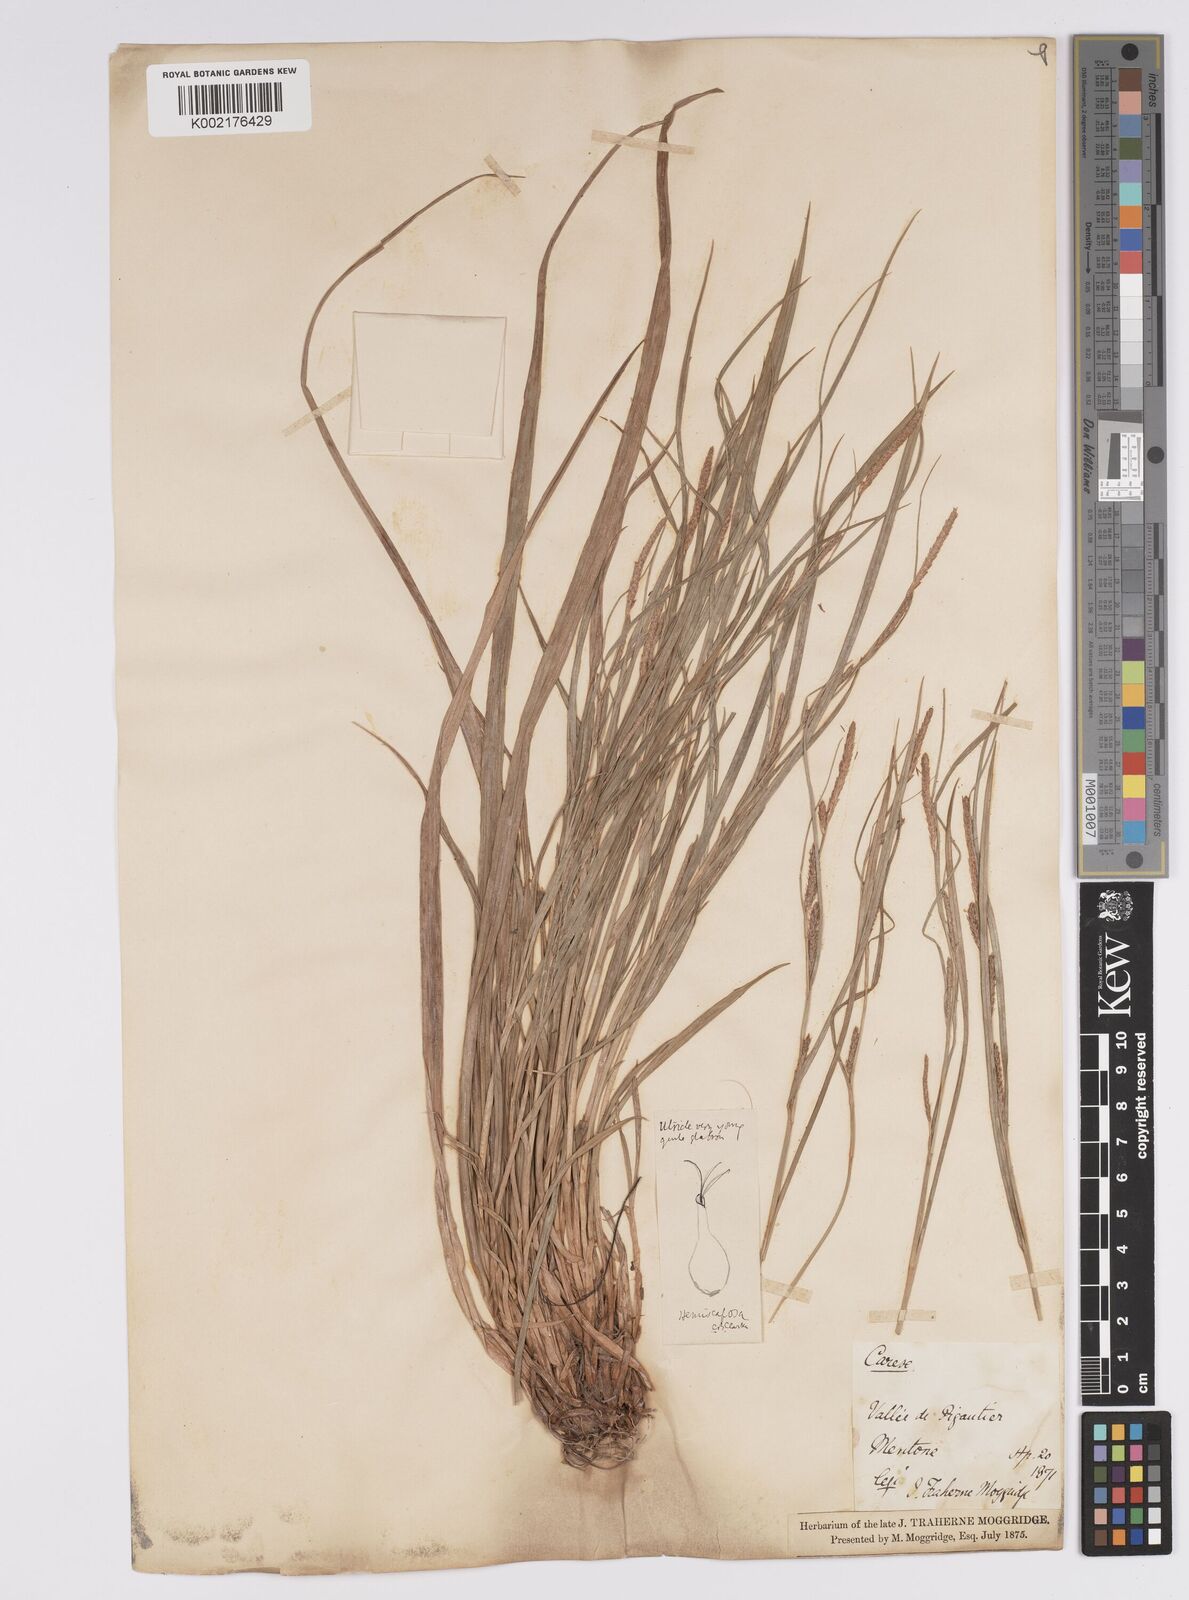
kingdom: Plantae
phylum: Tracheophyta
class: Liliopsida
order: Poales
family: Cyperaceae
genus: Carex
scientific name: Carex distans
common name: Distant sedge
